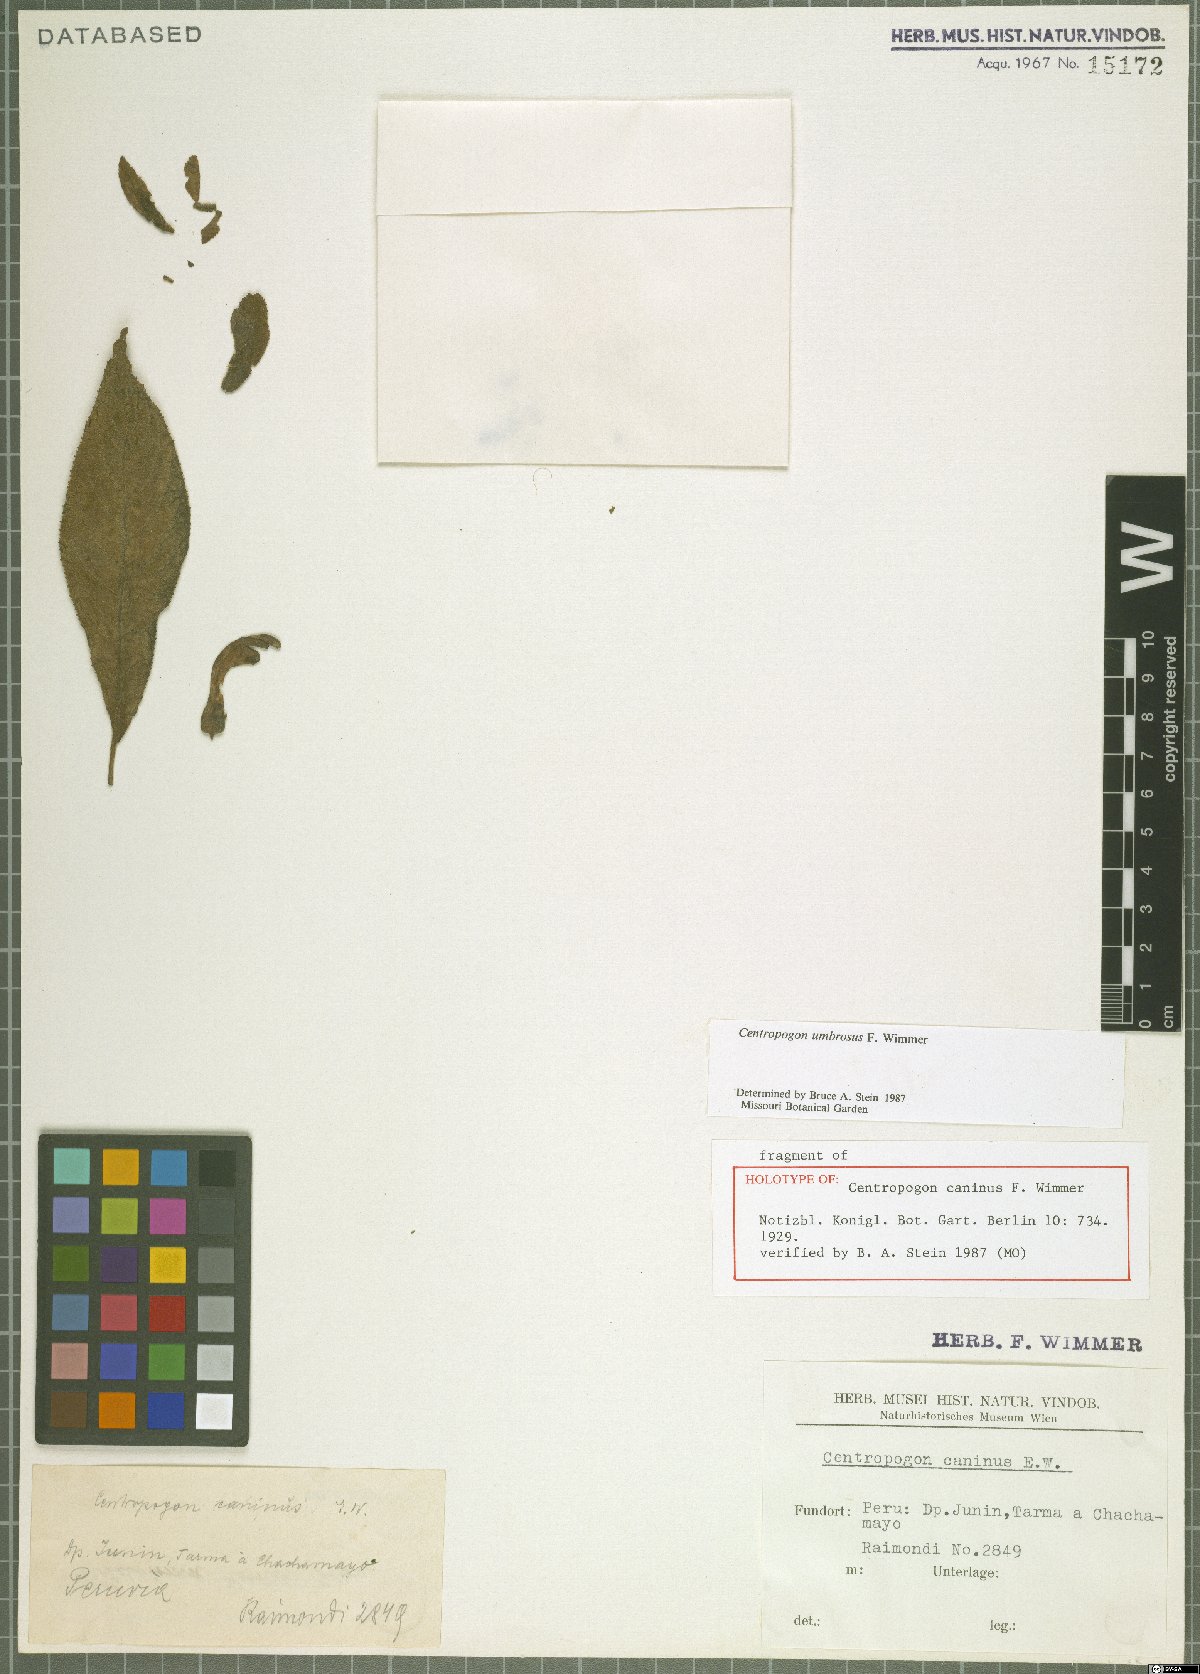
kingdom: Plantae
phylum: Tracheophyta
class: Magnoliopsida
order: Asterales
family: Campanulaceae
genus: Centropogon
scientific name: Centropogon umbrosus
